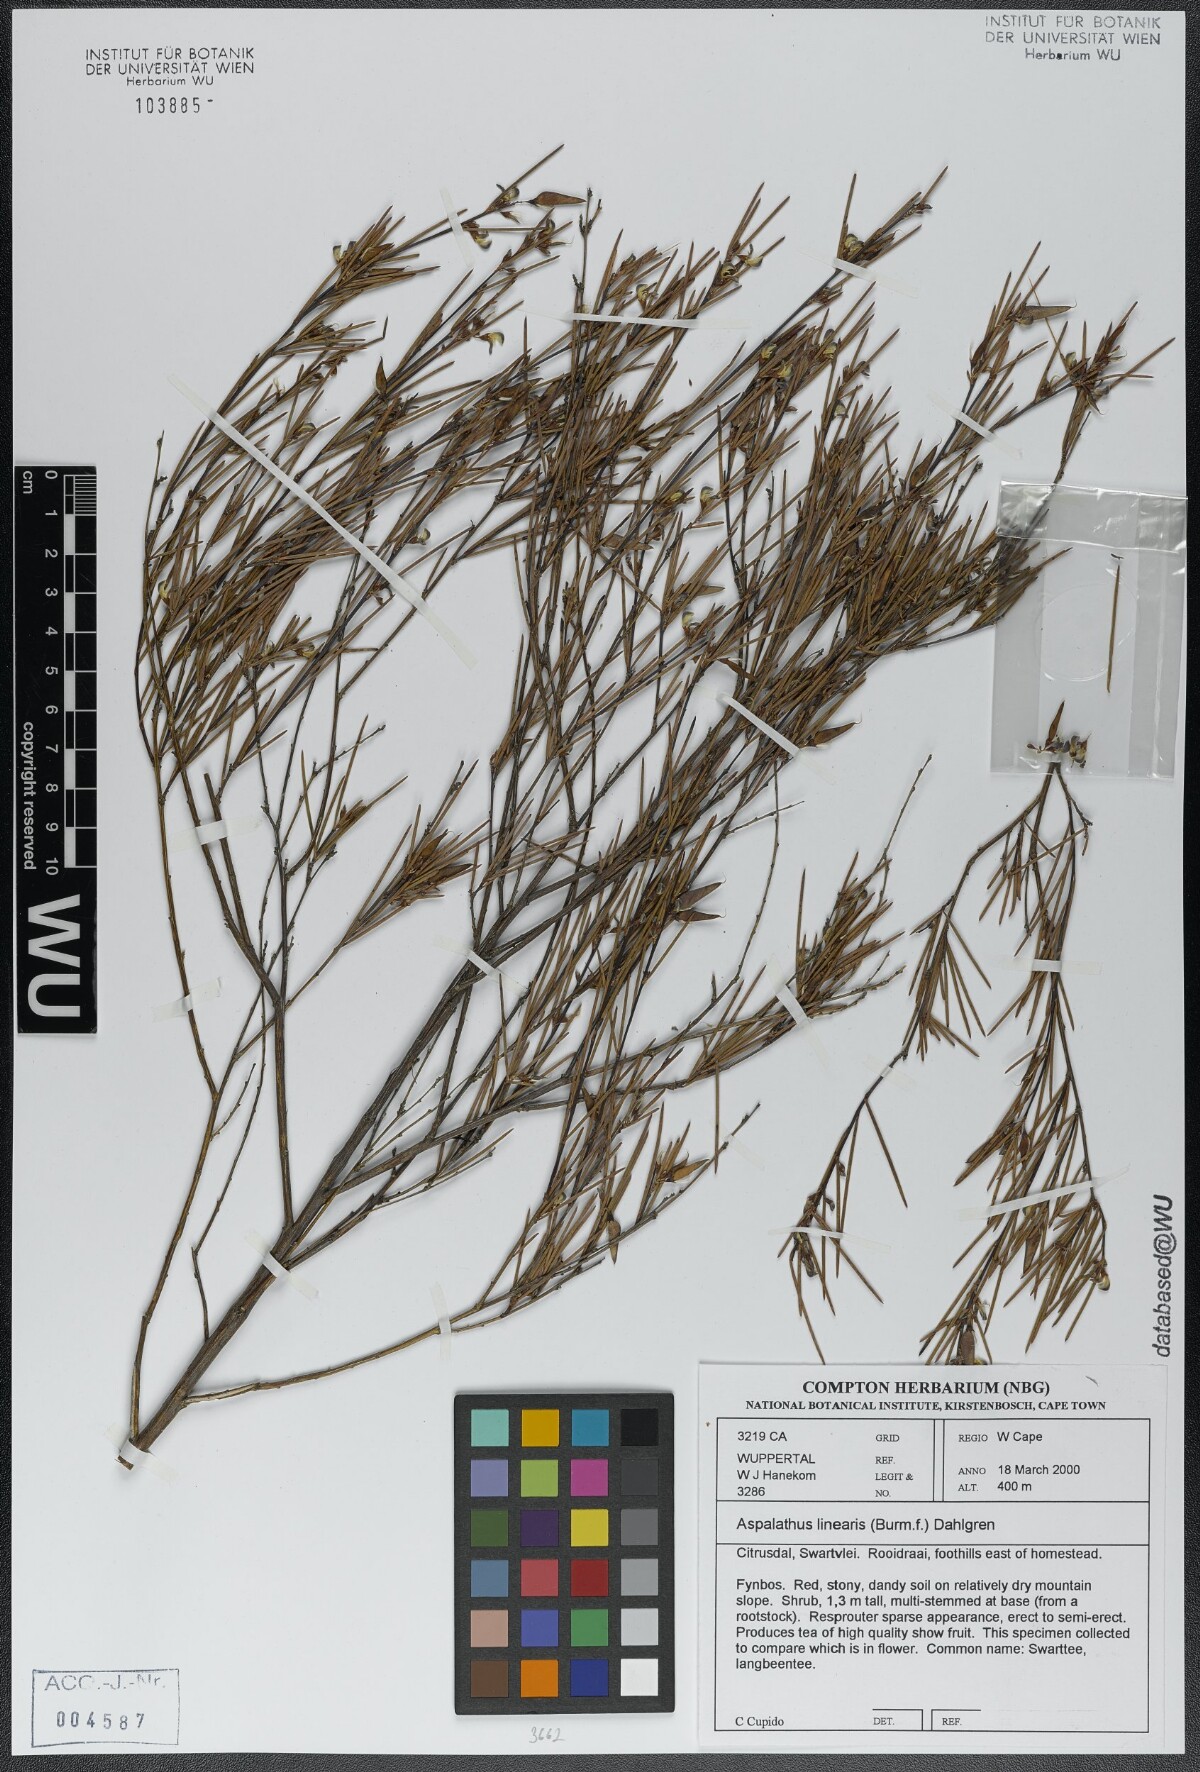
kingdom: Plantae
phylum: Tracheophyta
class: Magnoliopsida
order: Fabales
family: Fabaceae
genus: Aspalathus
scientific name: Aspalathus linearis
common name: Rooibos-tea
